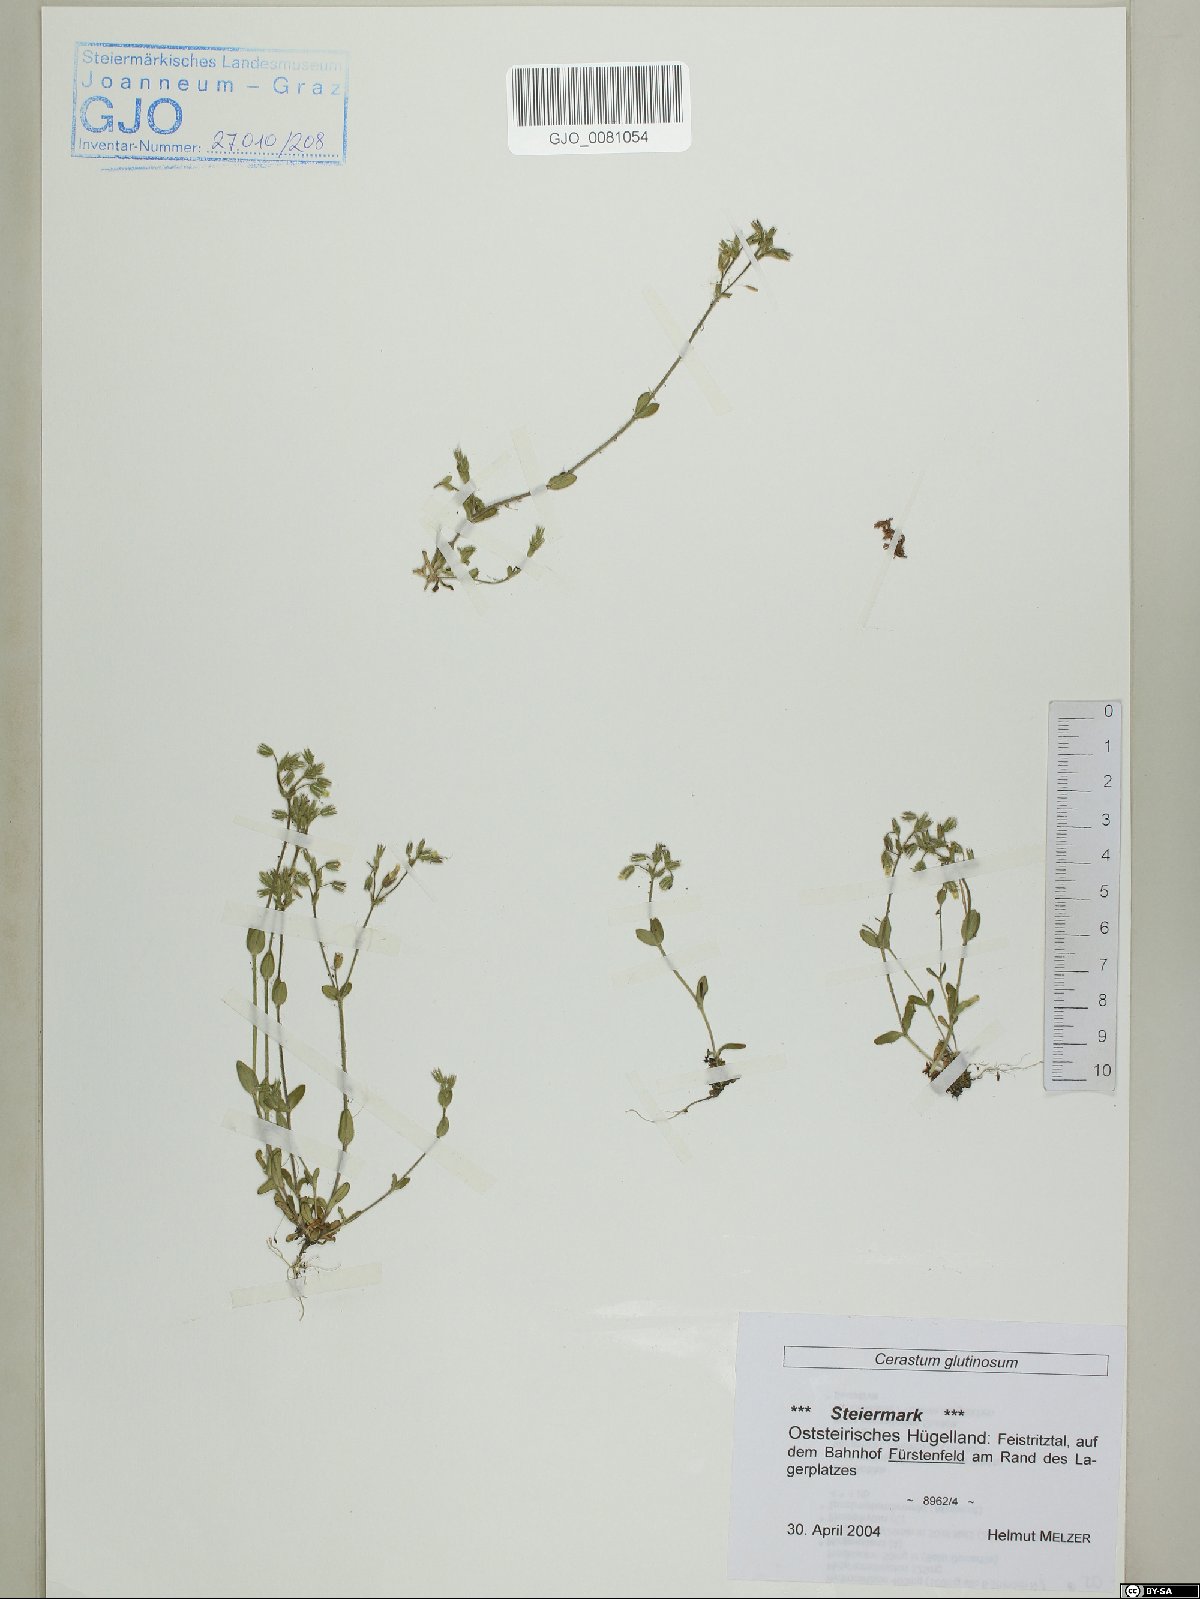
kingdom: Plantae
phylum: Tracheophyta
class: Magnoliopsida
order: Caryophyllales
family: Caryophyllaceae
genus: Cerastium
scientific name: Cerastium glutinosum
